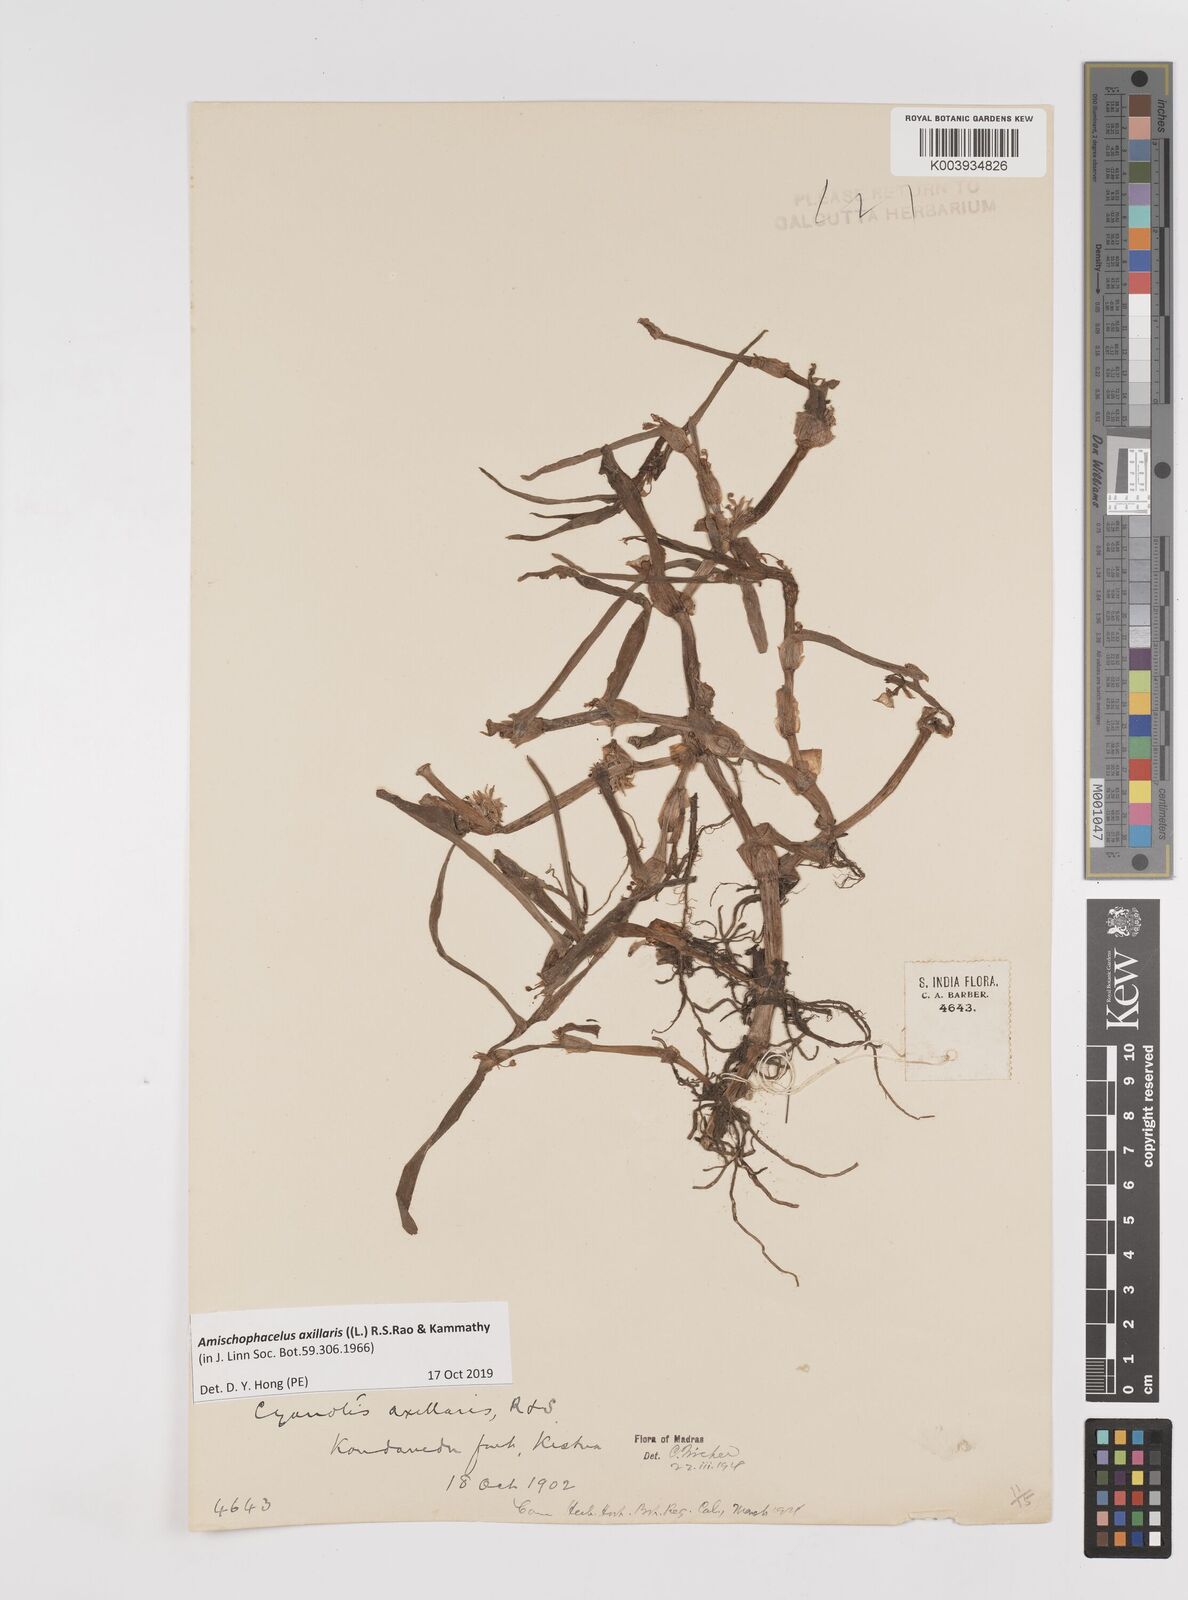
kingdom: Plantae
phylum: Tracheophyta
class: Liliopsida
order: Commelinales
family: Commelinaceae
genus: Cyanotis
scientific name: Cyanotis axillaris
